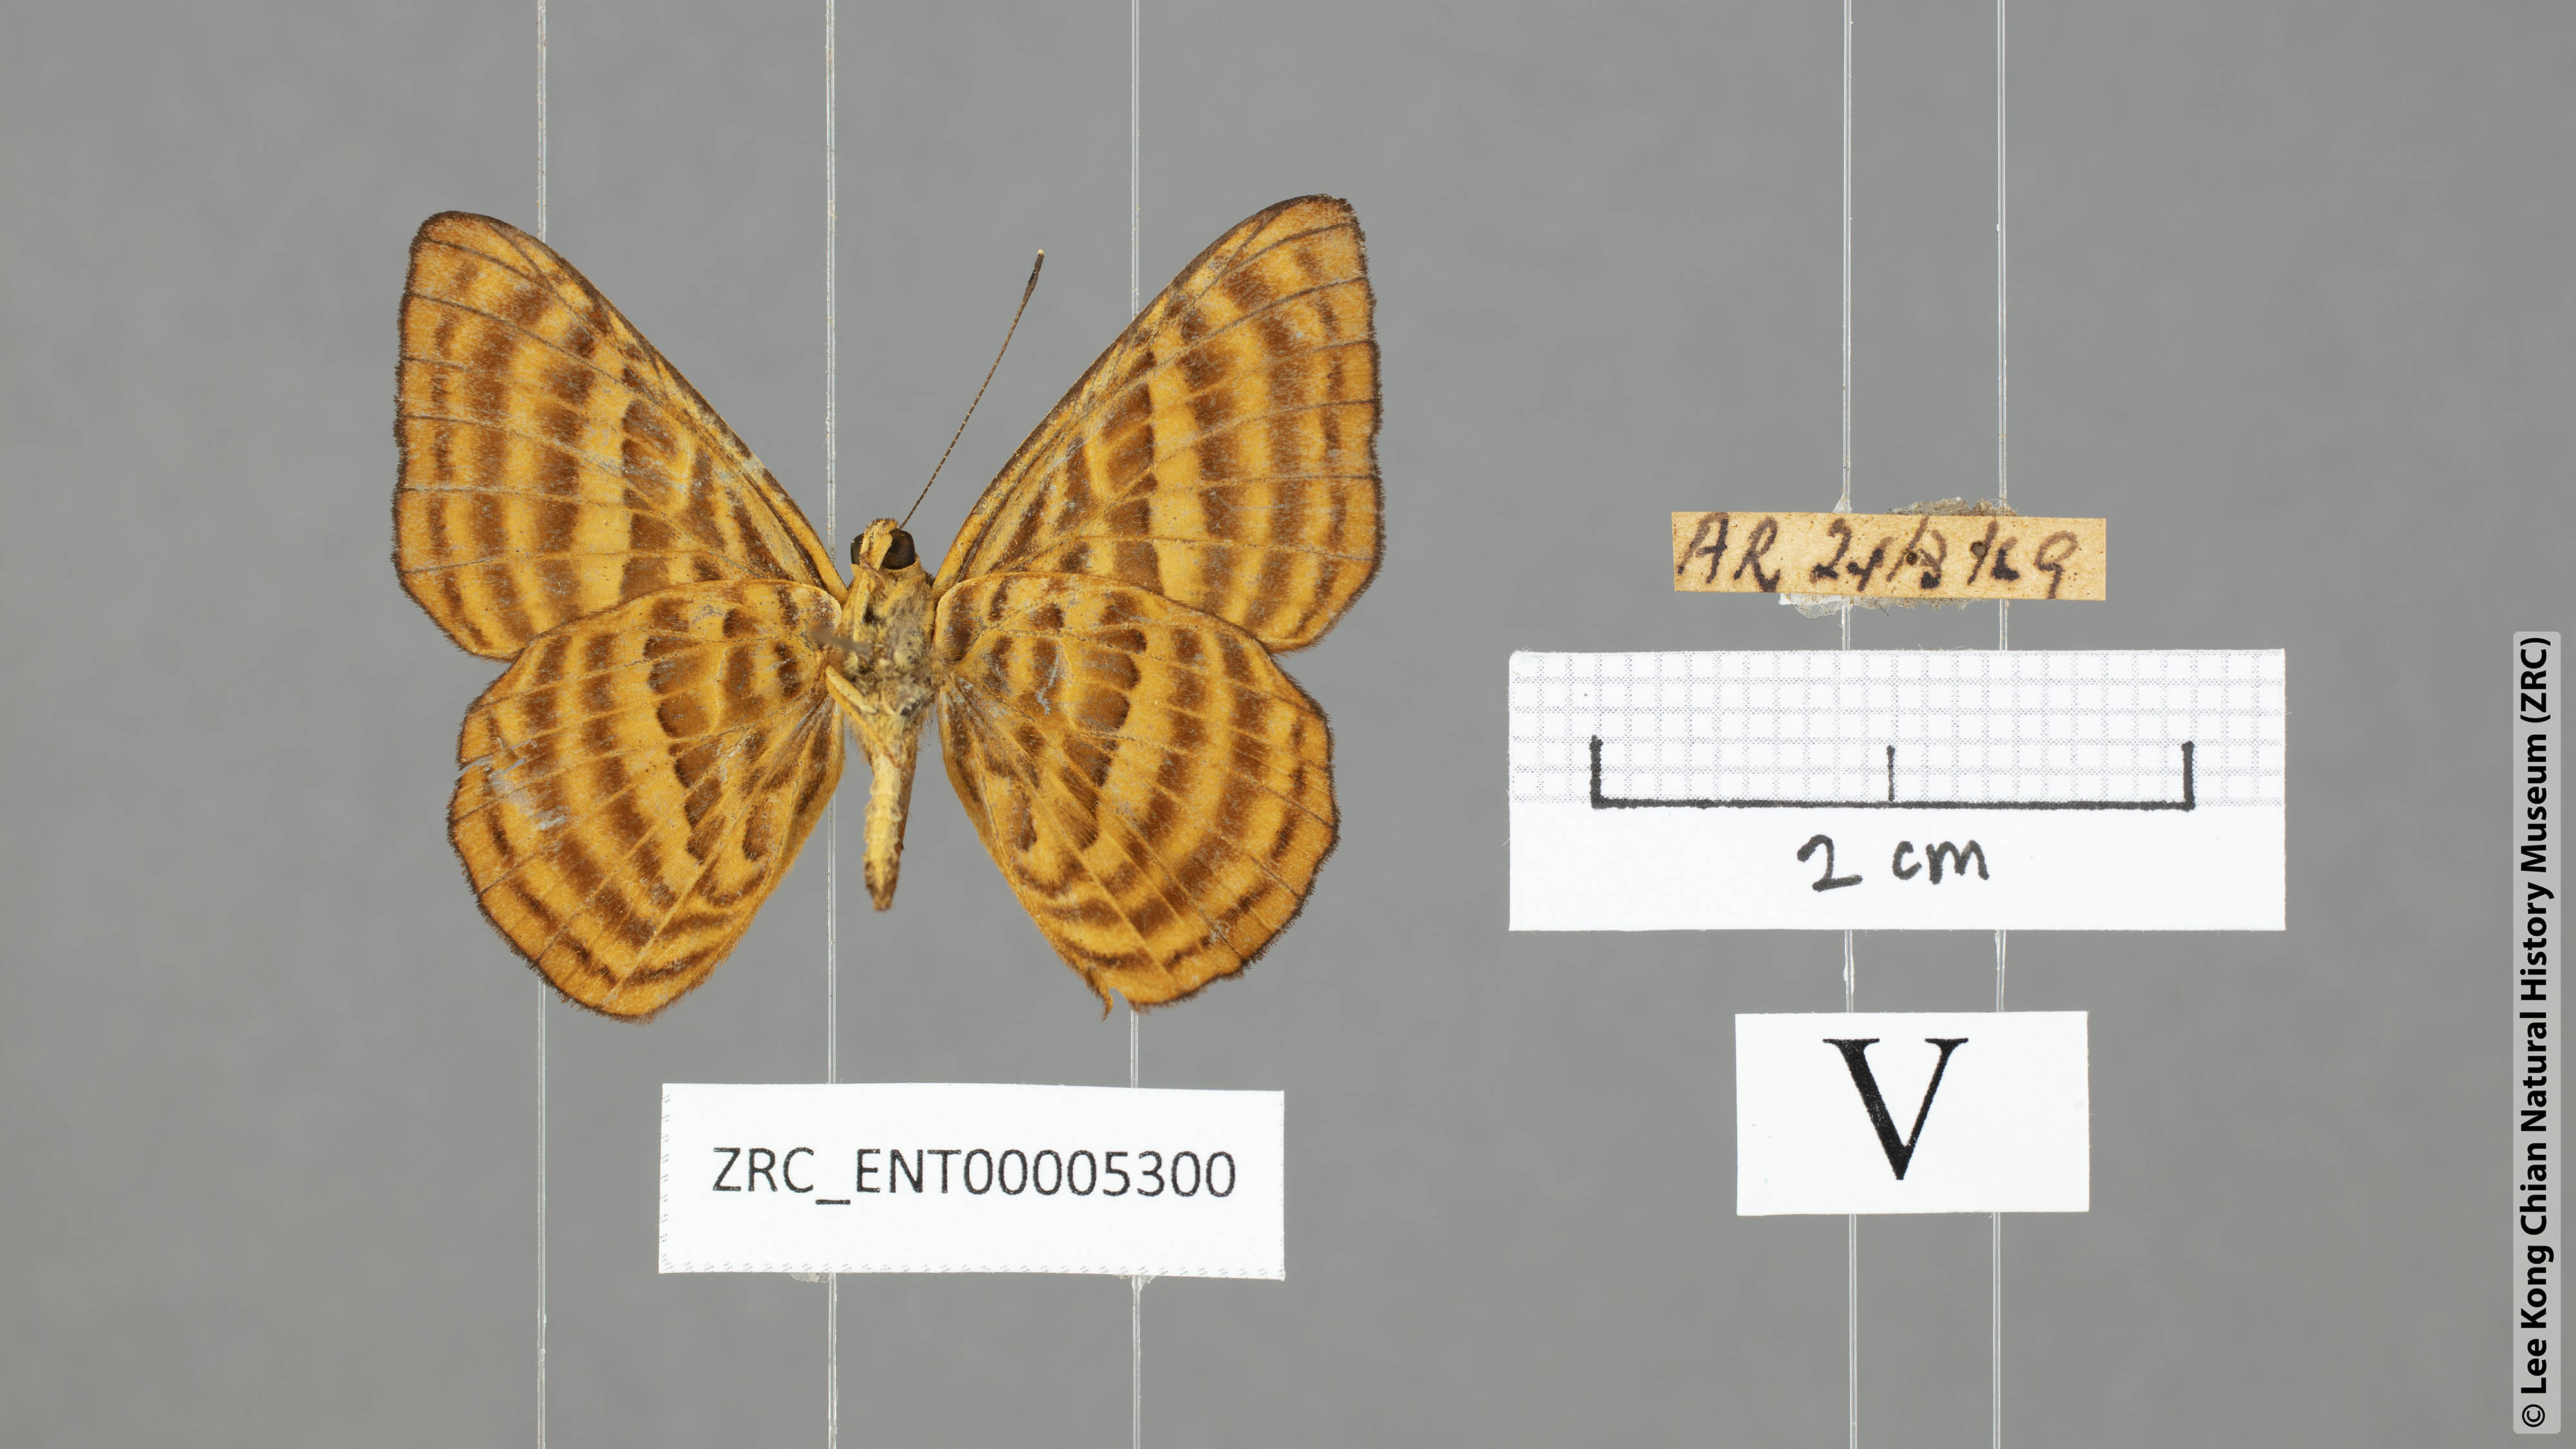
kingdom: Animalia
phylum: Arthropoda
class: Insecta
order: Lepidoptera
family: Riodinidae
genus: Zemeros
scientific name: Zemeros emesoides
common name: Malay punchinello
